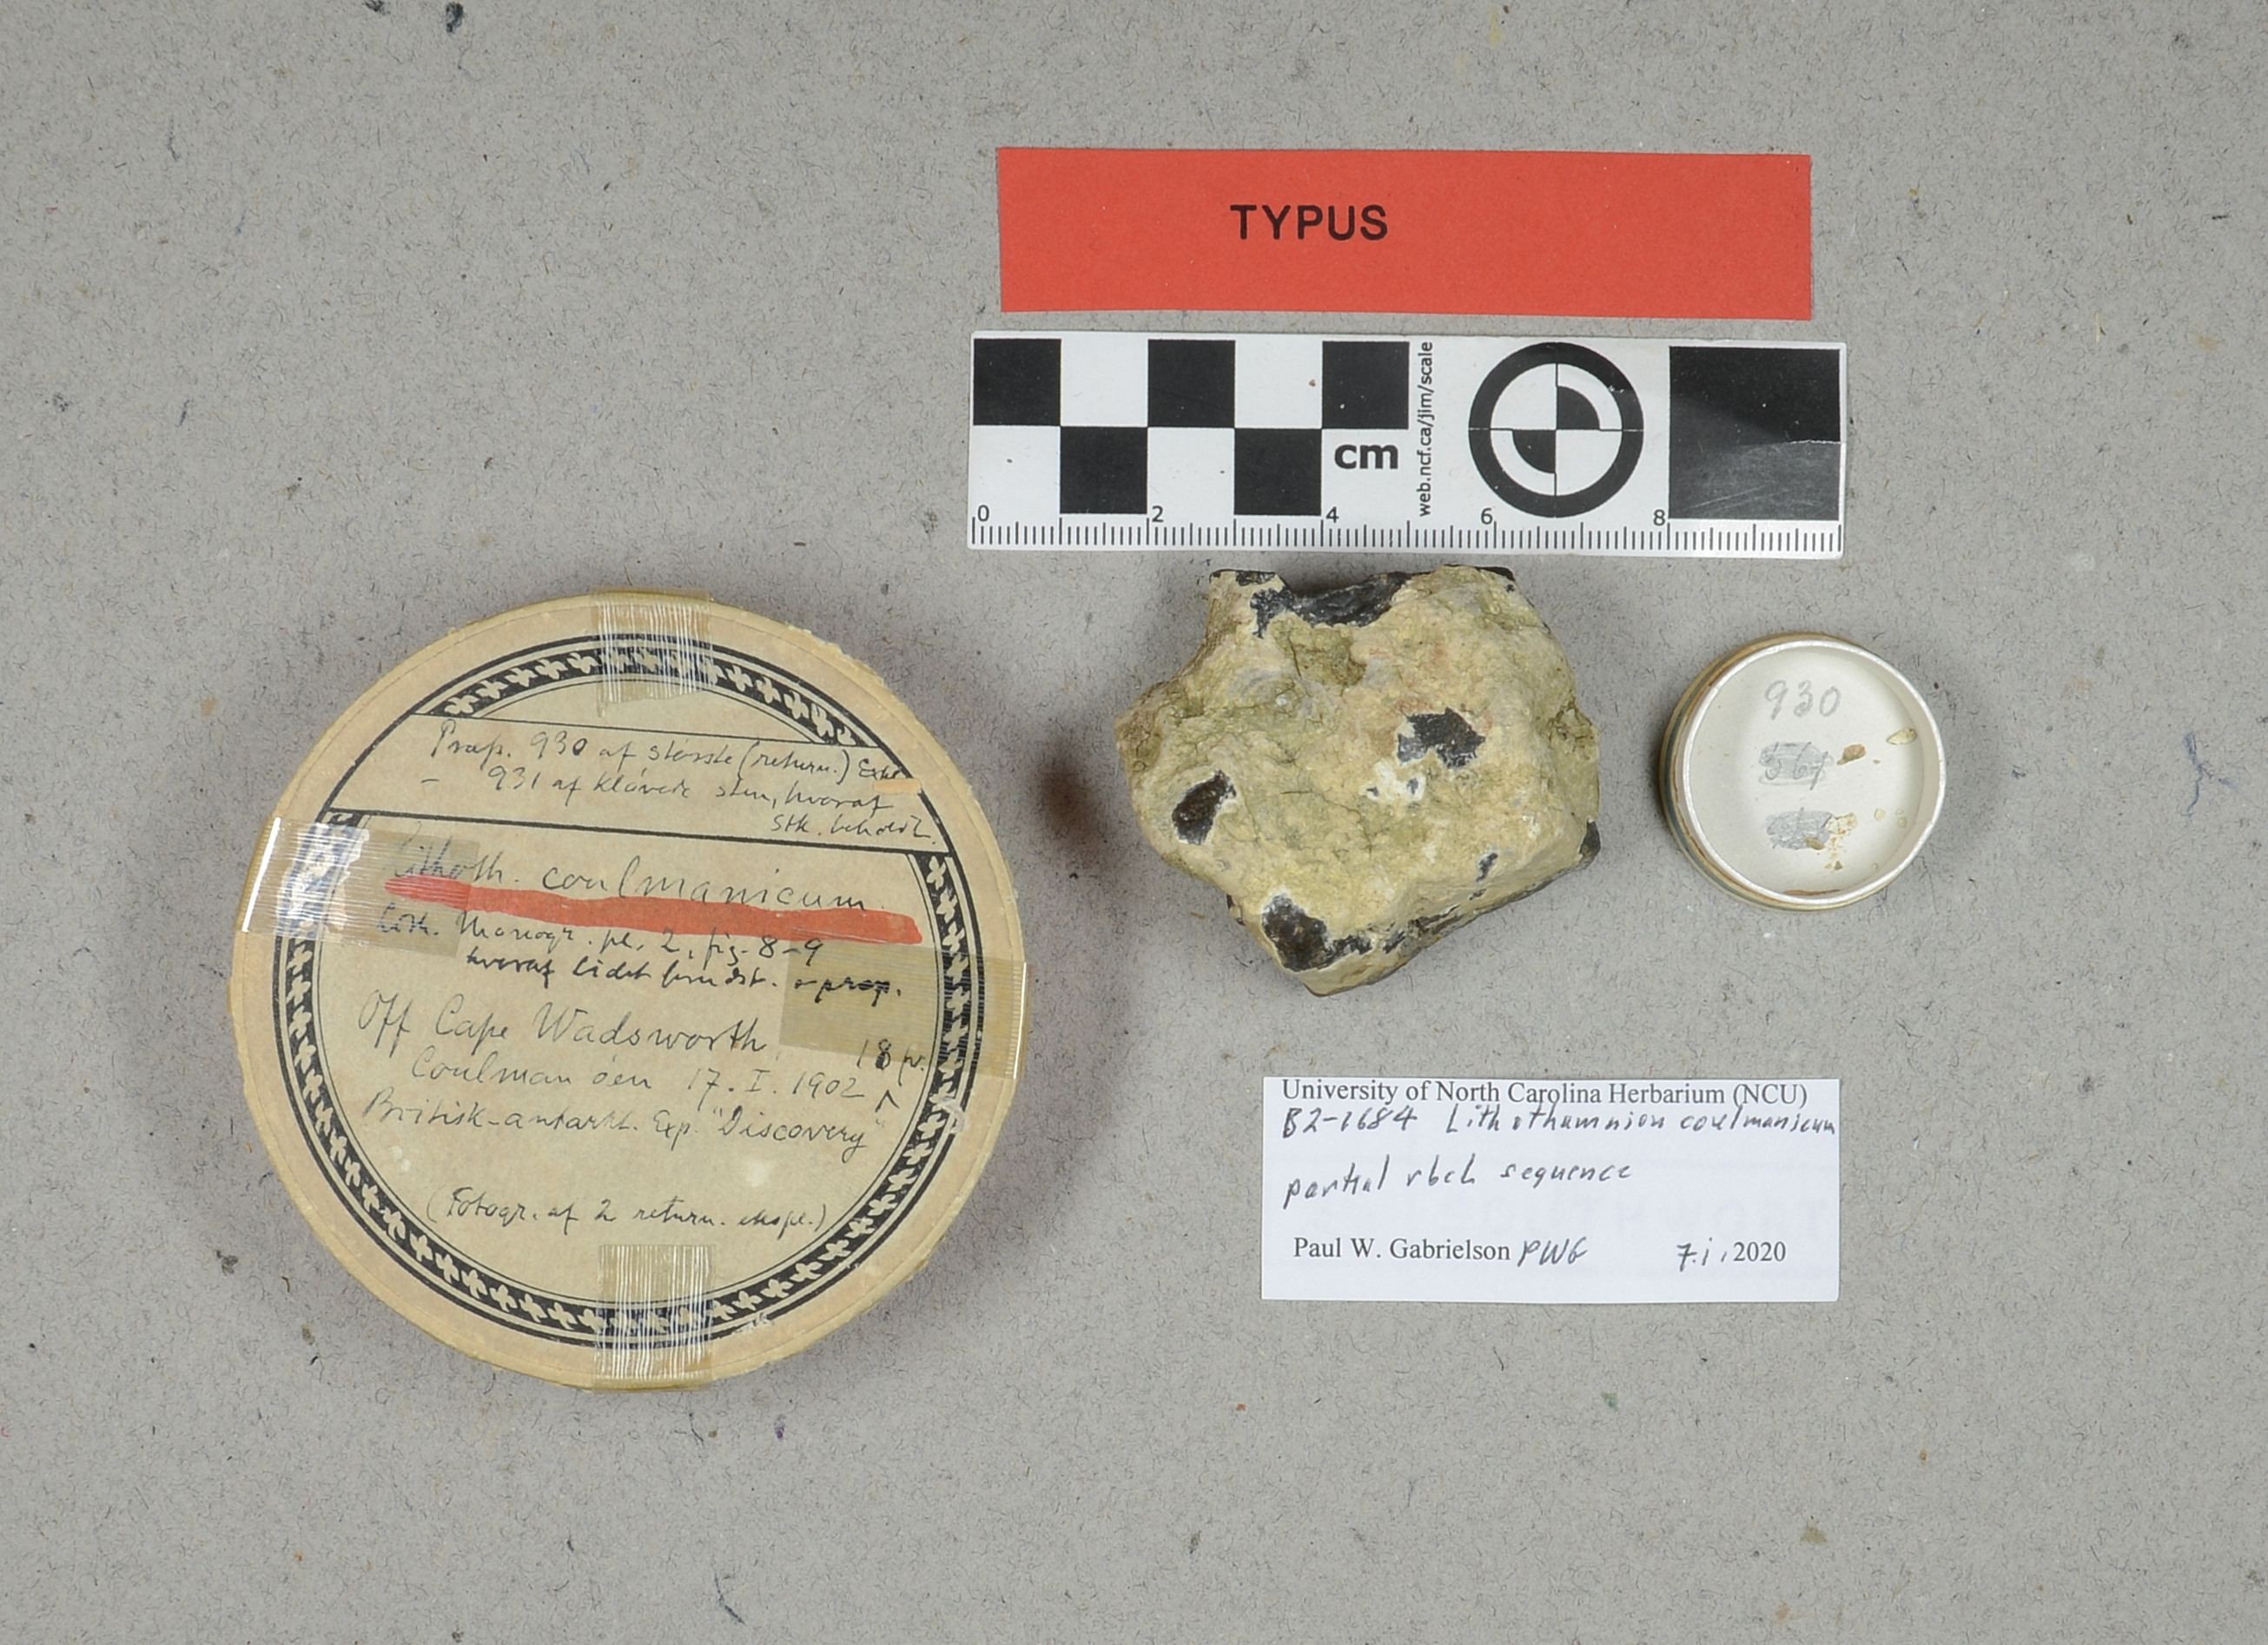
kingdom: Plantae
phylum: Rhodophyta
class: Florideophyceae
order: Corallinales
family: Mesophyllumaceae
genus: Leptophytum
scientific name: Leptophytum coulmanicum
